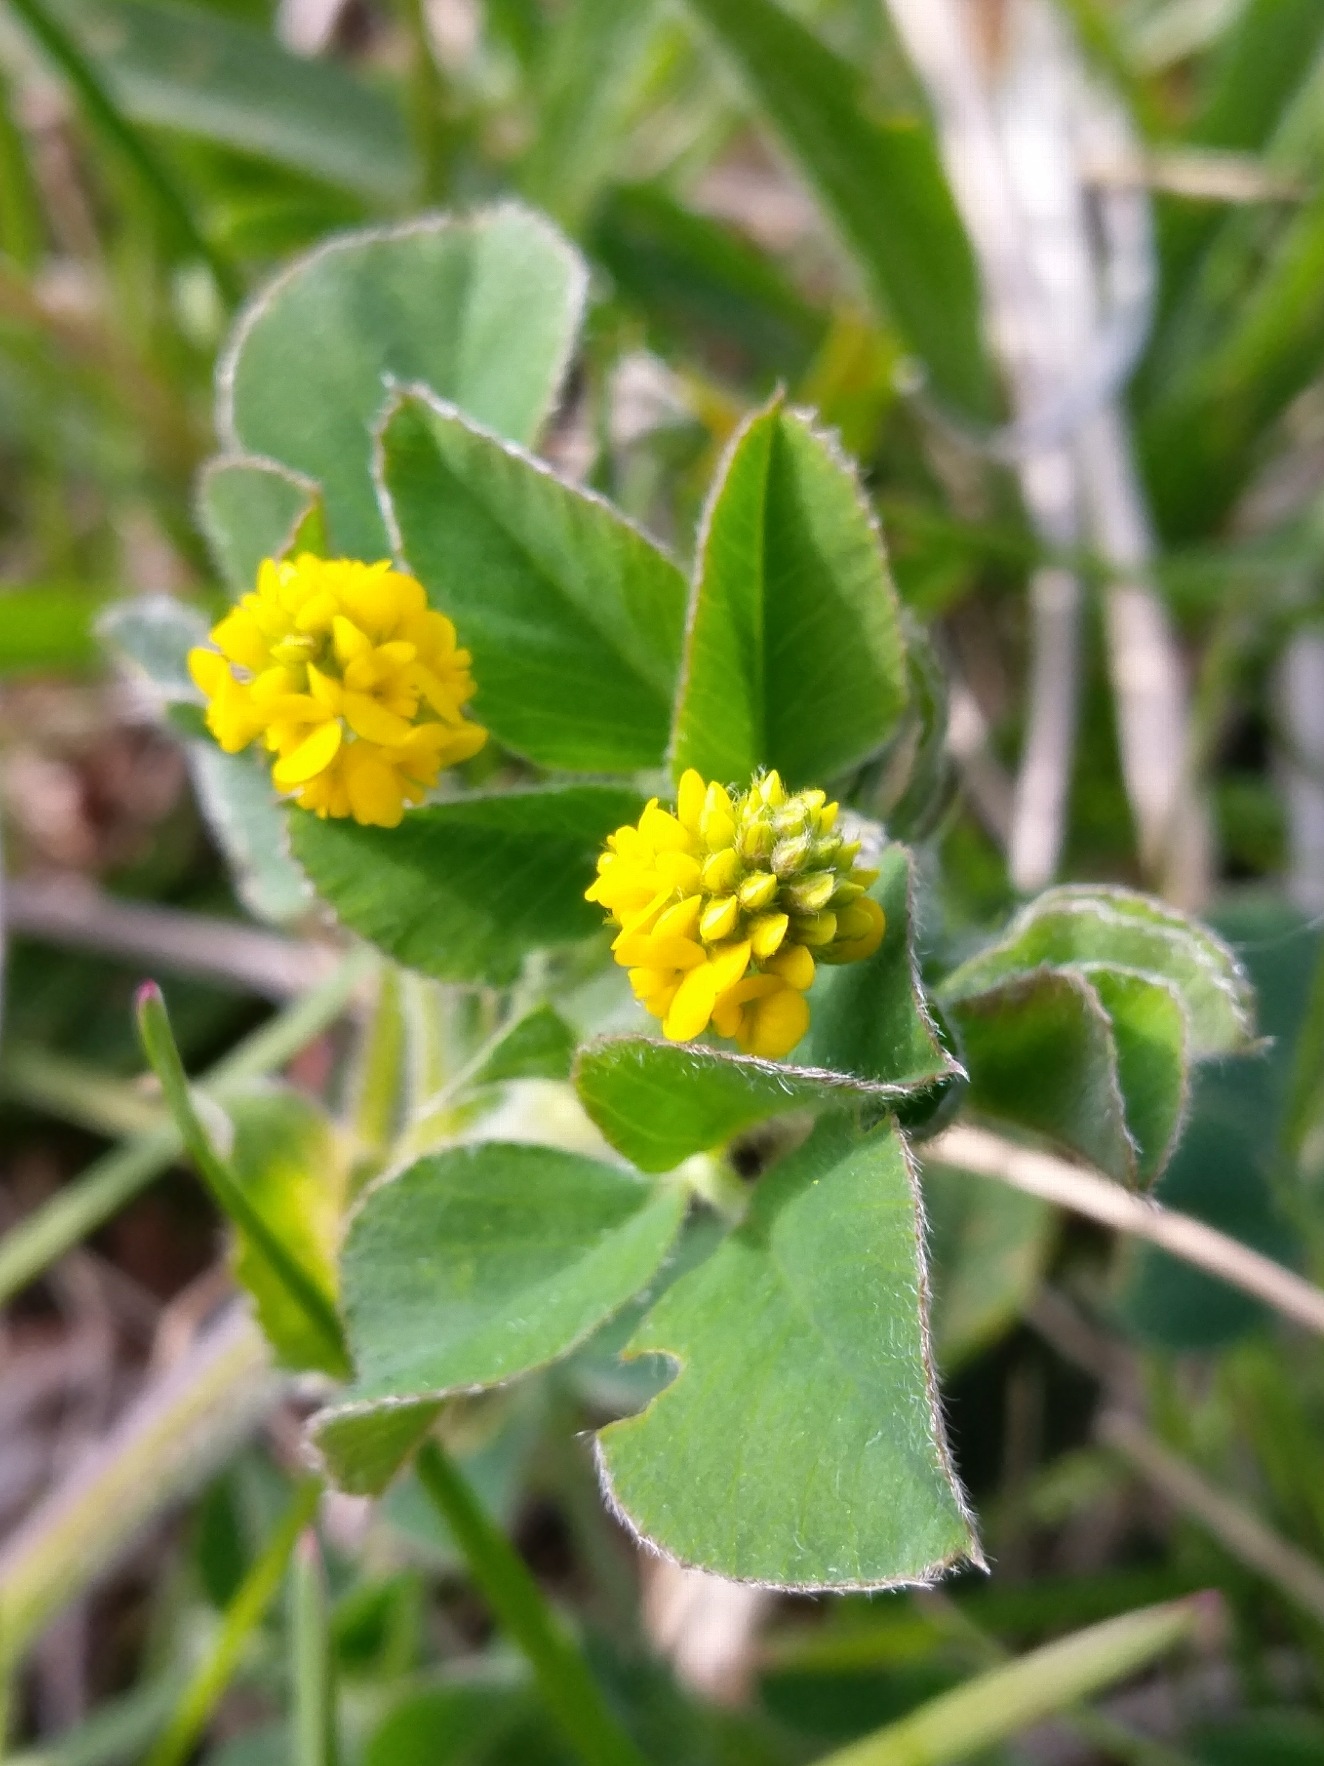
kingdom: Plantae
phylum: Tracheophyta
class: Magnoliopsida
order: Fabales
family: Fabaceae
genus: Medicago
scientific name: Medicago lupulina
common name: Humle-sneglebælg
